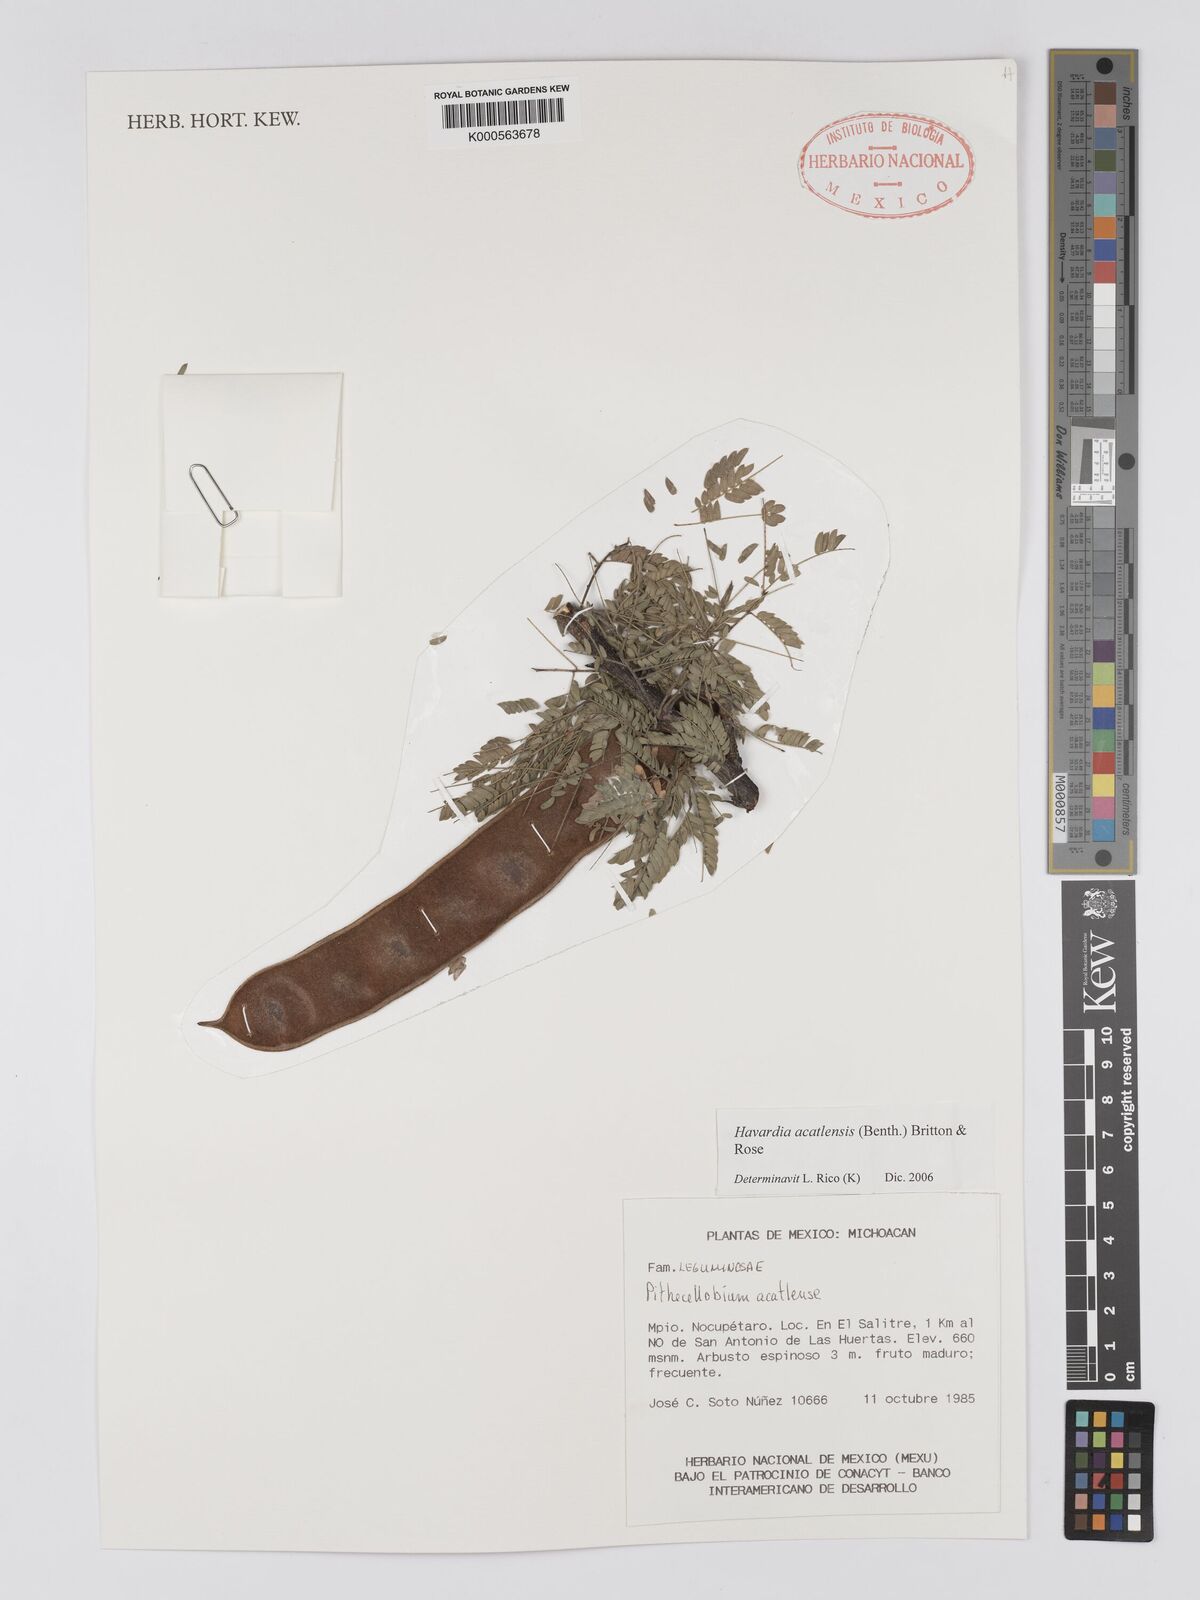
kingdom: Plantae
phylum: Tracheophyta
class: Magnoliopsida
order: Fabales
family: Fabaceae
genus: Havardia
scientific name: Havardia acatlensis
